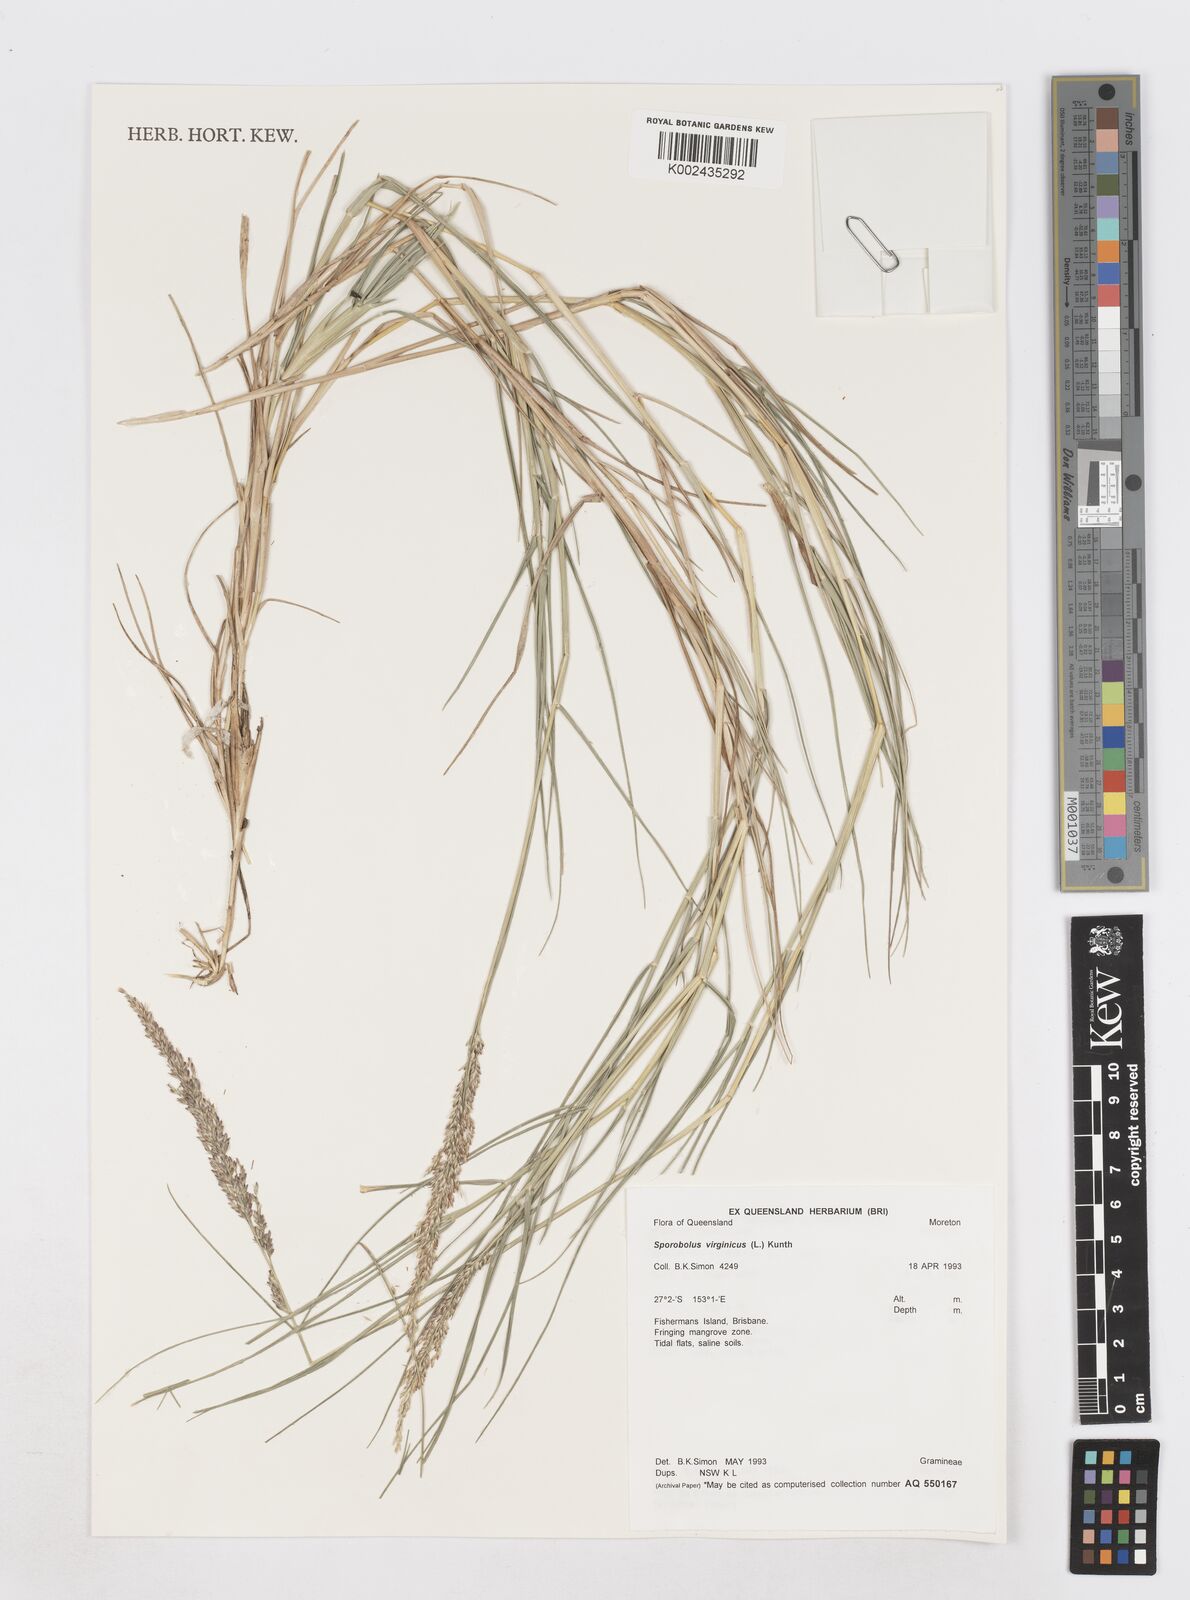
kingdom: Plantae
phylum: Tracheophyta
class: Liliopsida
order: Poales
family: Poaceae
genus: Sporobolus
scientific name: Sporobolus virginicus
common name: Beach dropseed
